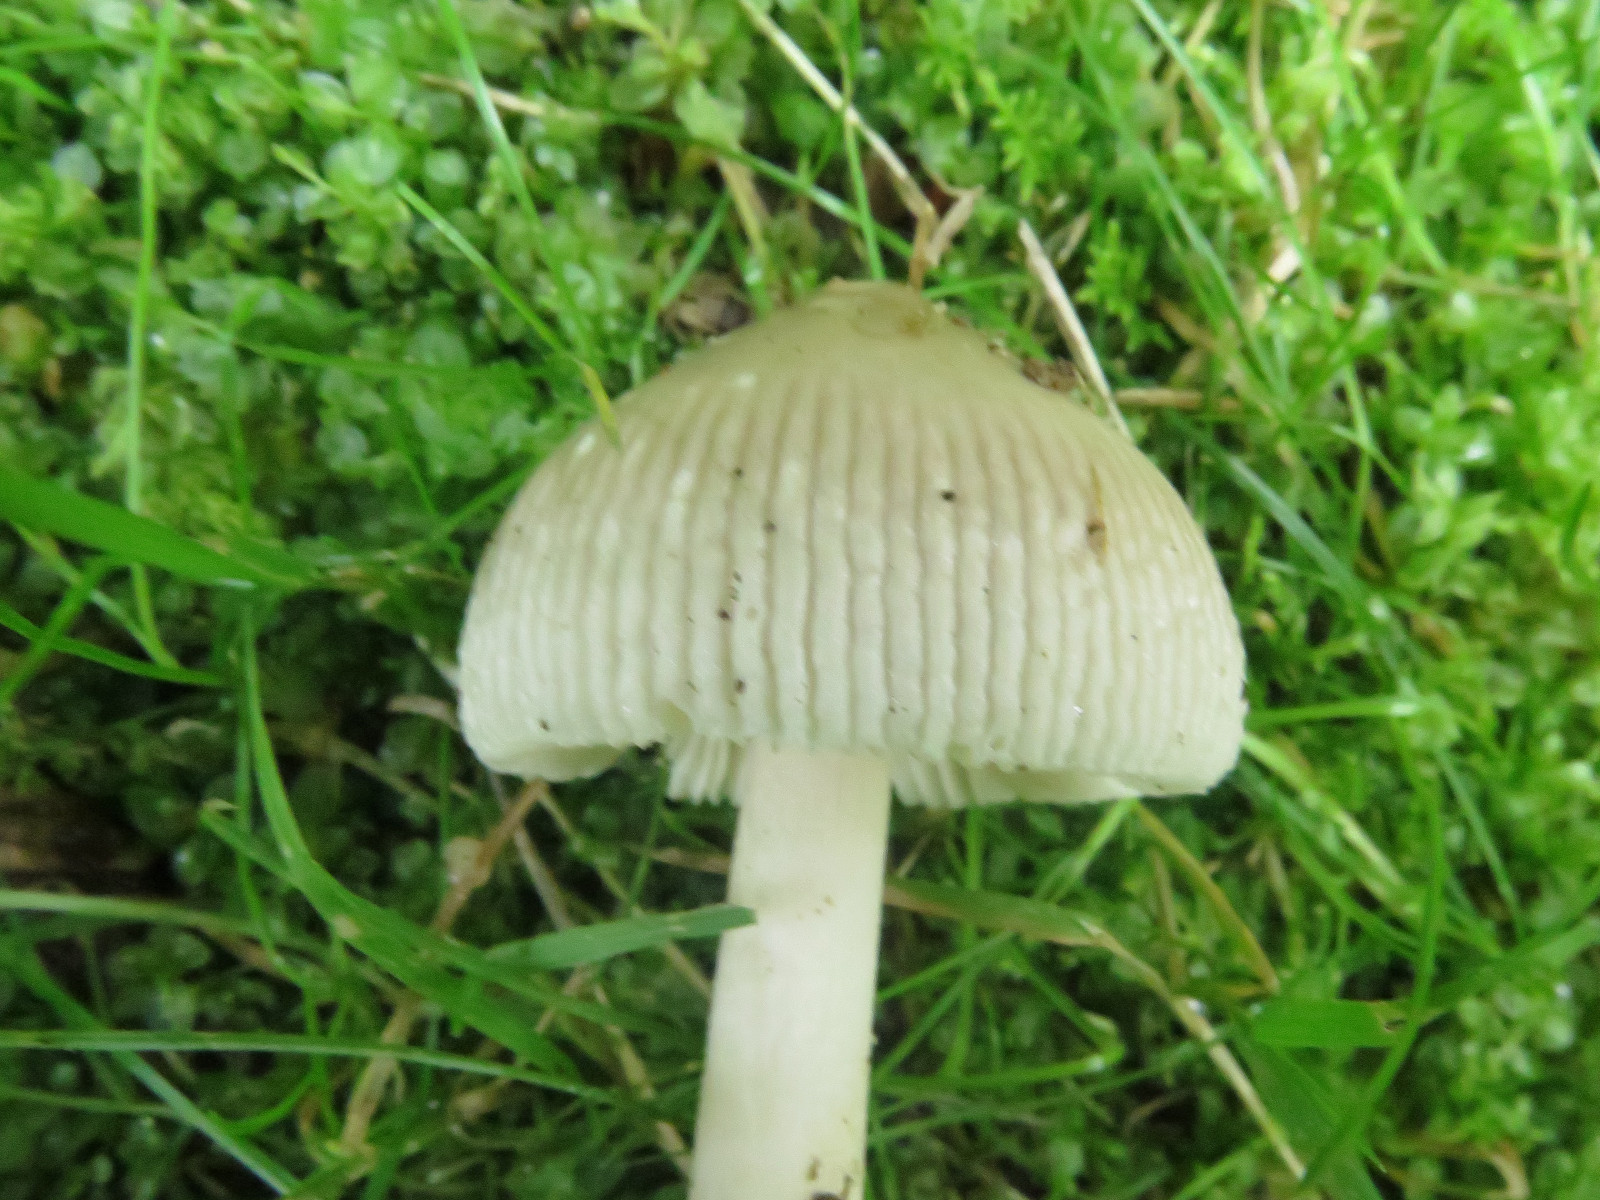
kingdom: Fungi
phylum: Basidiomycota
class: Agaricomycetes
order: Agaricales
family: Amanitaceae
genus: Amanita
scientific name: Amanita
